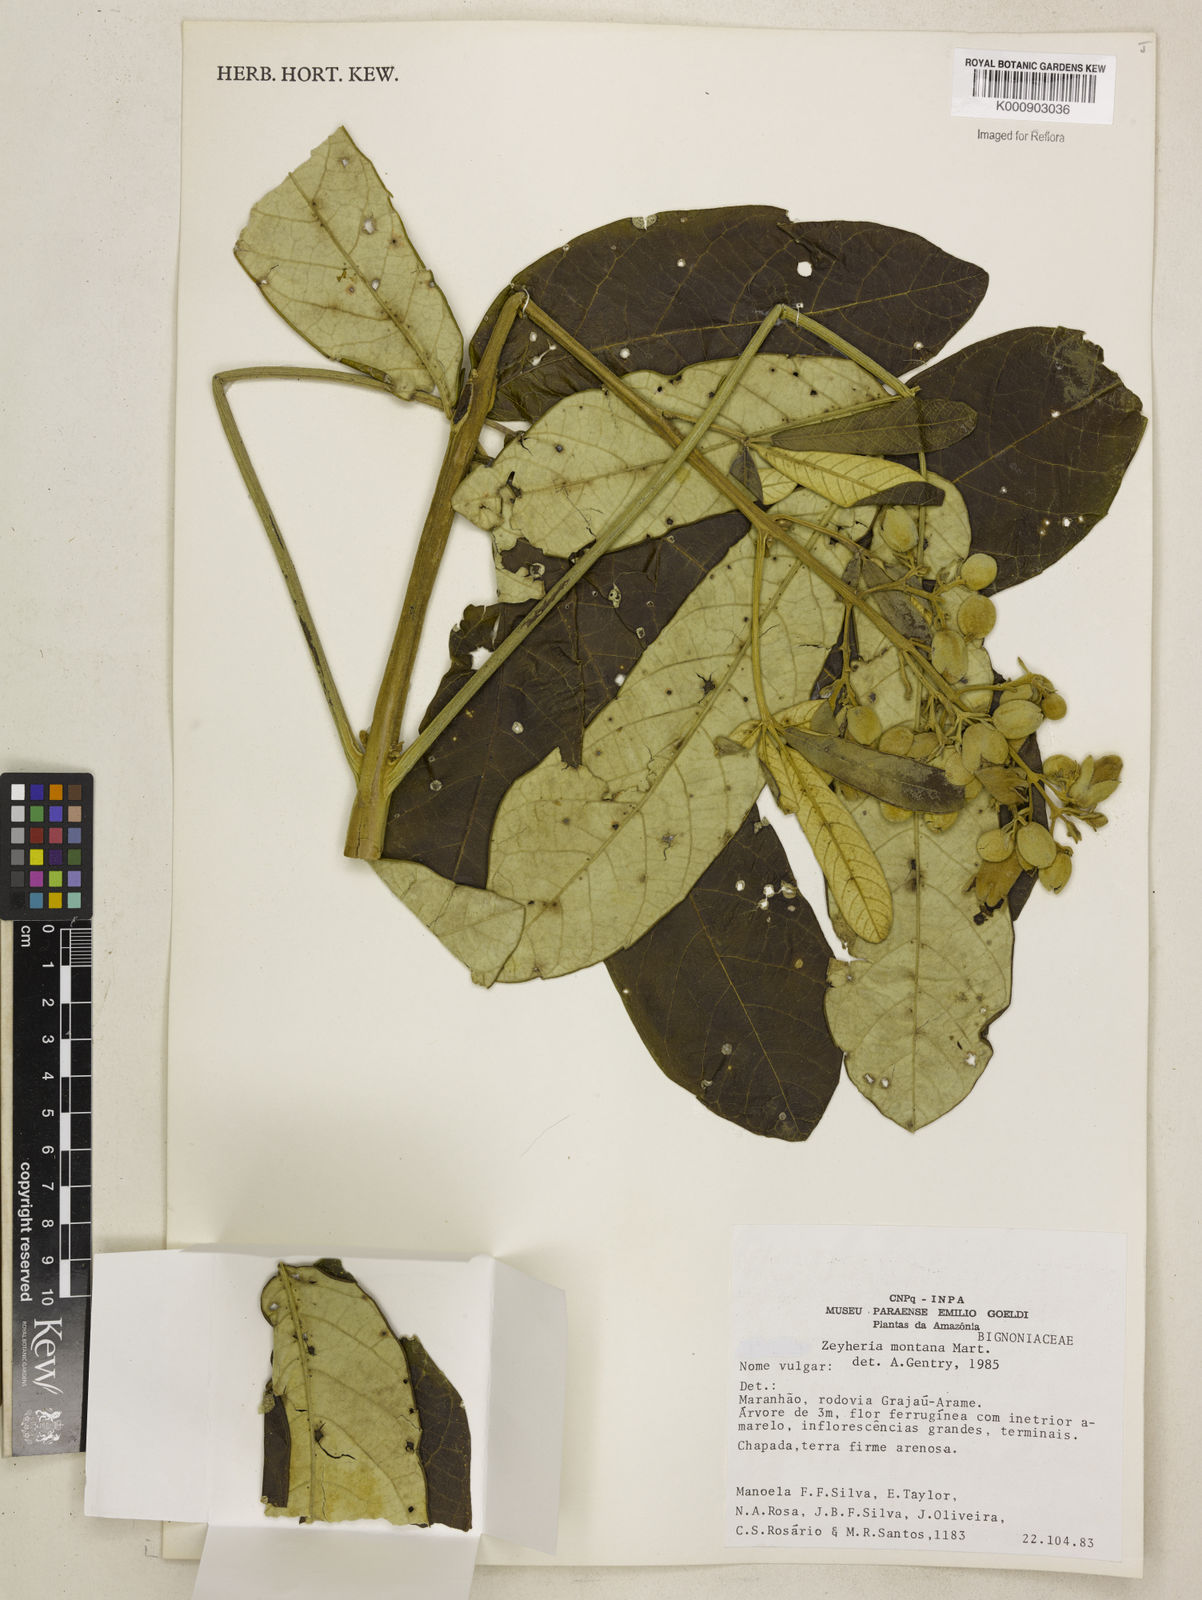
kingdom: Plantae
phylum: Tracheophyta
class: Magnoliopsida
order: Lamiales
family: Bignoniaceae
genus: Zeyheria
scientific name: Zeyheria
